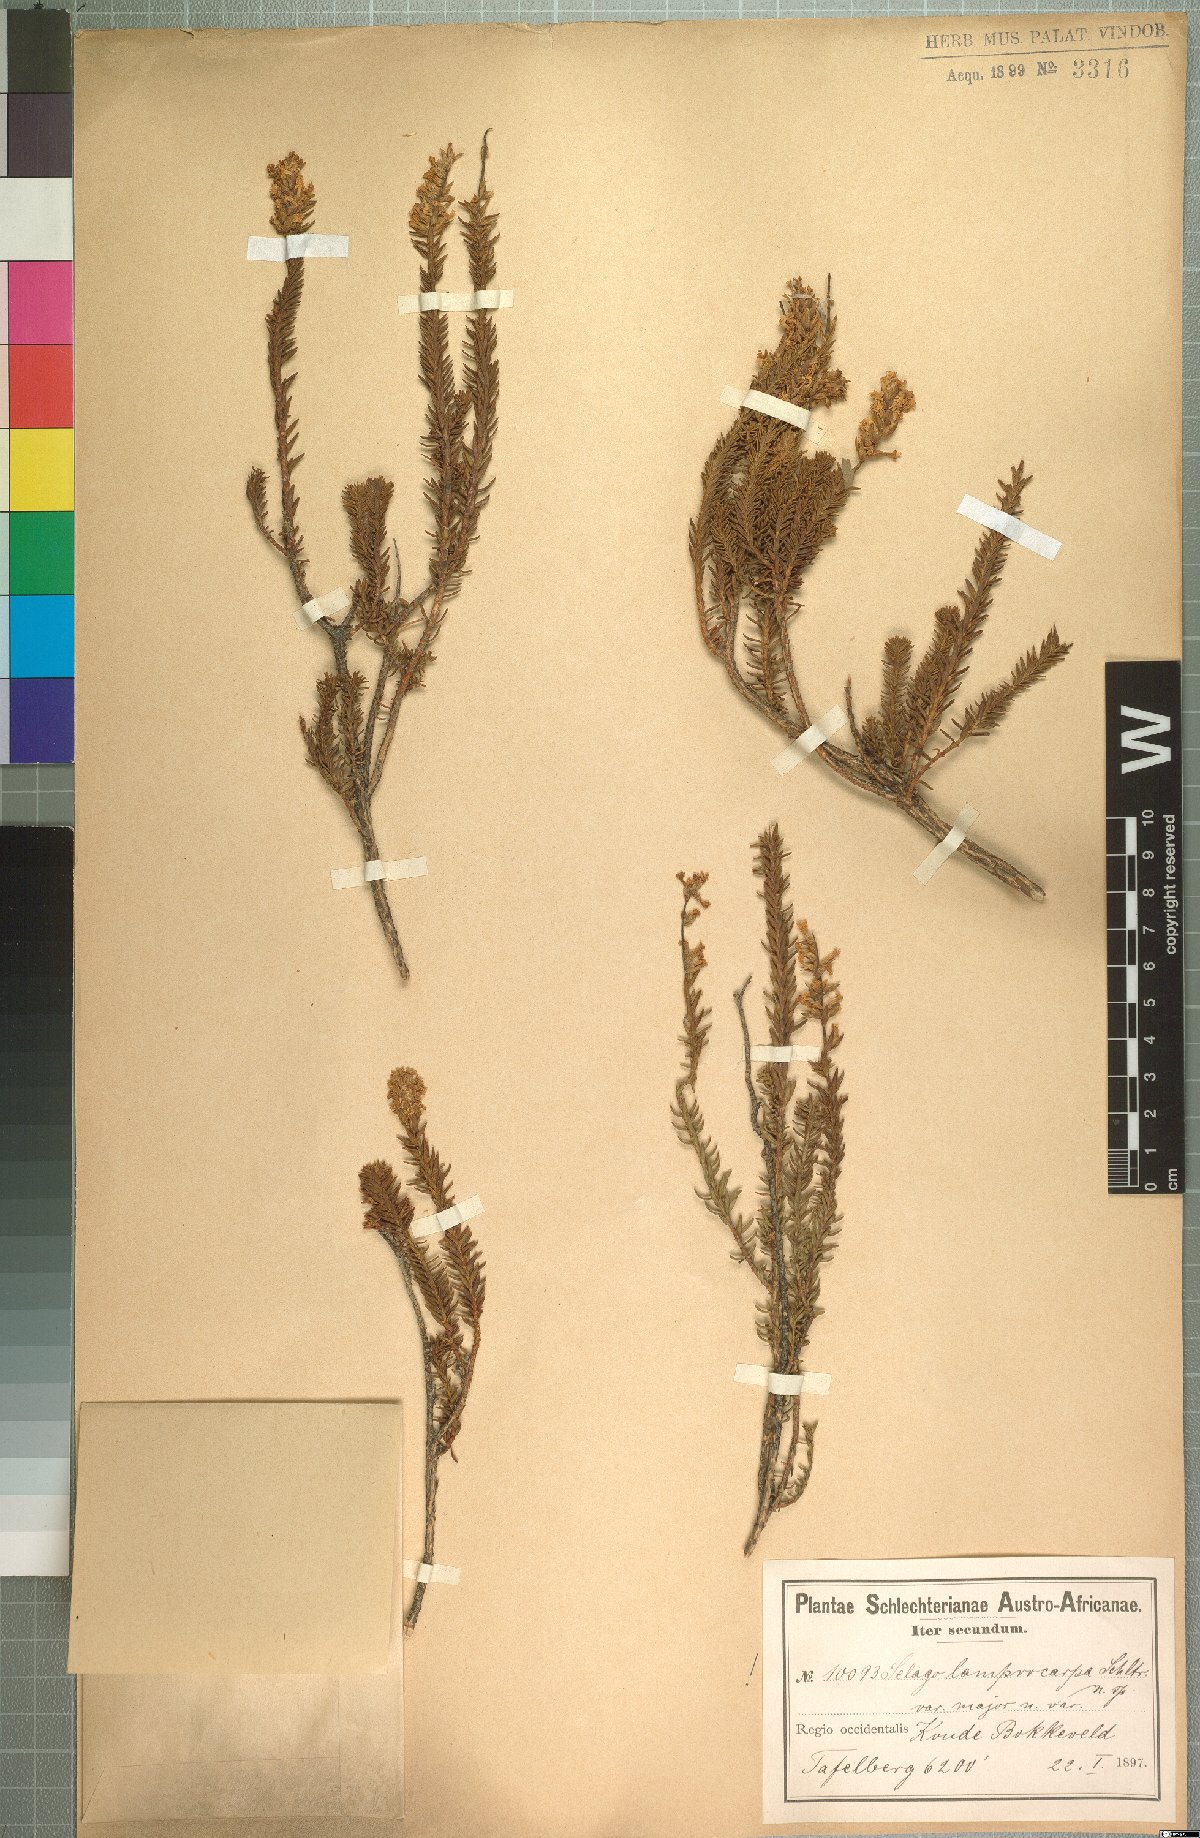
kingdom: Plantae
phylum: Tracheophyta
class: Magnoliopsida
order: Lamiales
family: Scrophulariaceae
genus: Selago
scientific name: Selago oresigena
